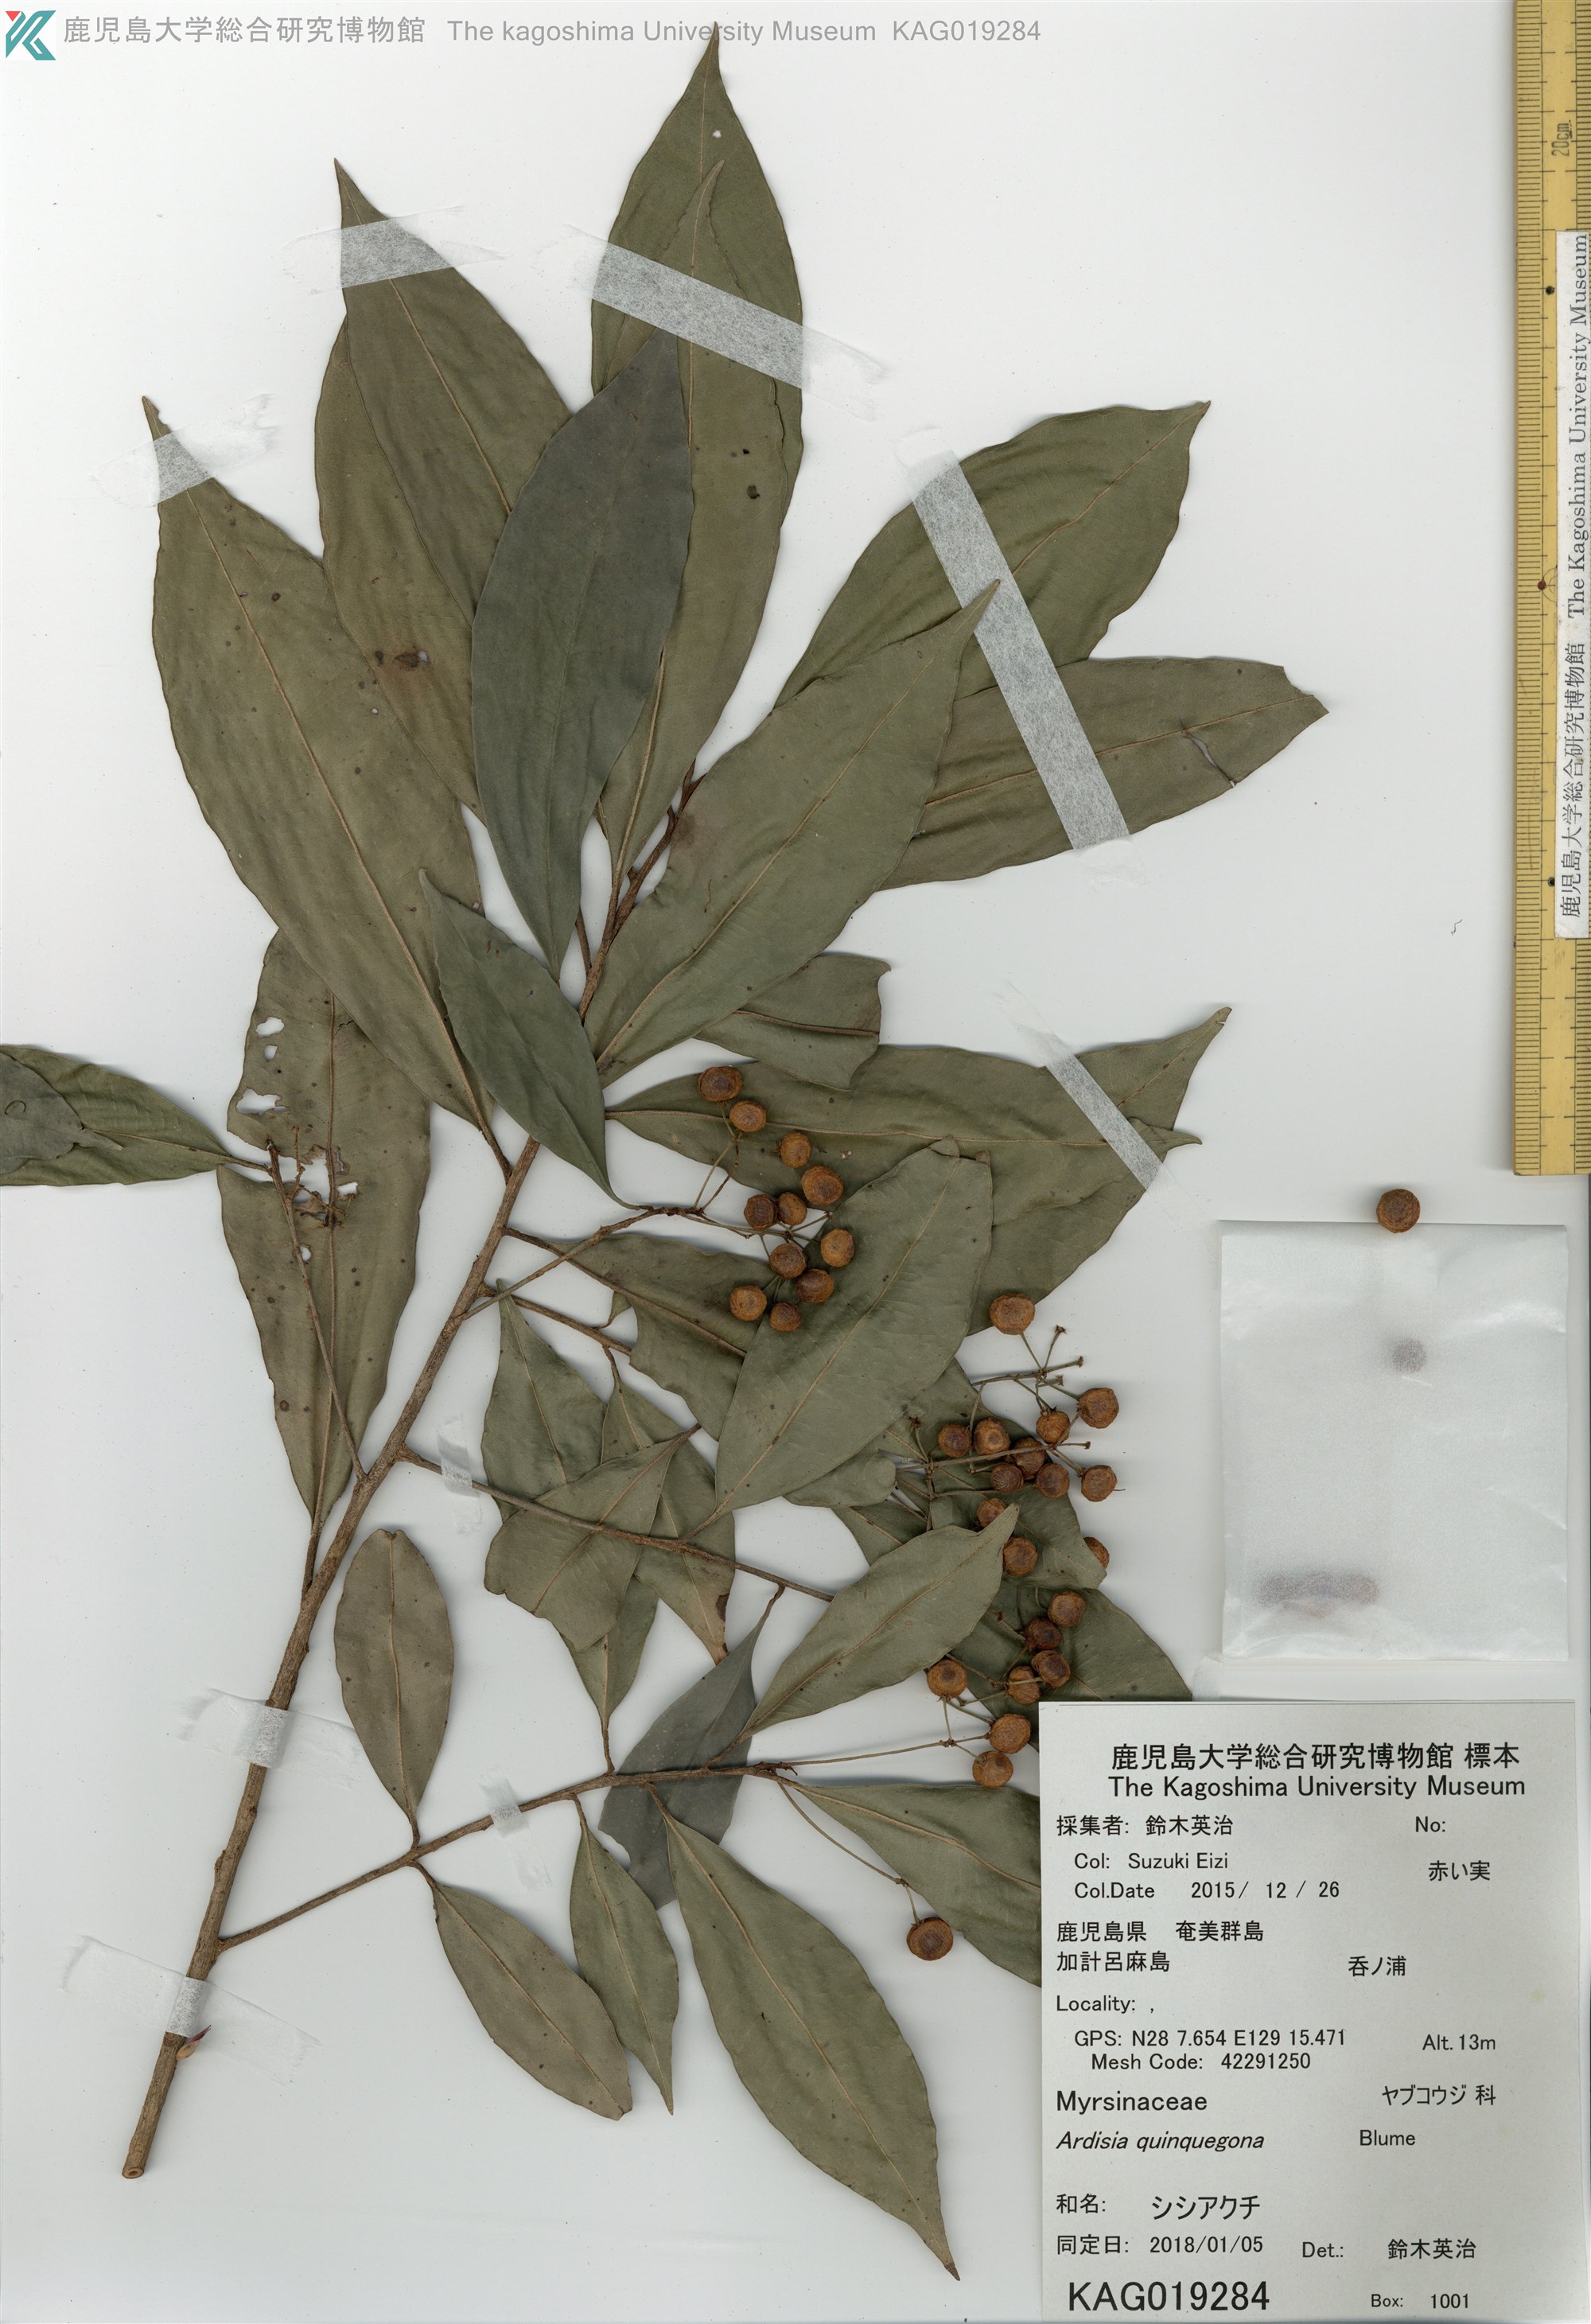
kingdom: Plantae
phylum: Tracheophyta
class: Magnoliopsida
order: Ericales
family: Primulaceae
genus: Ardisia
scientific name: Ardisia quinquegona
